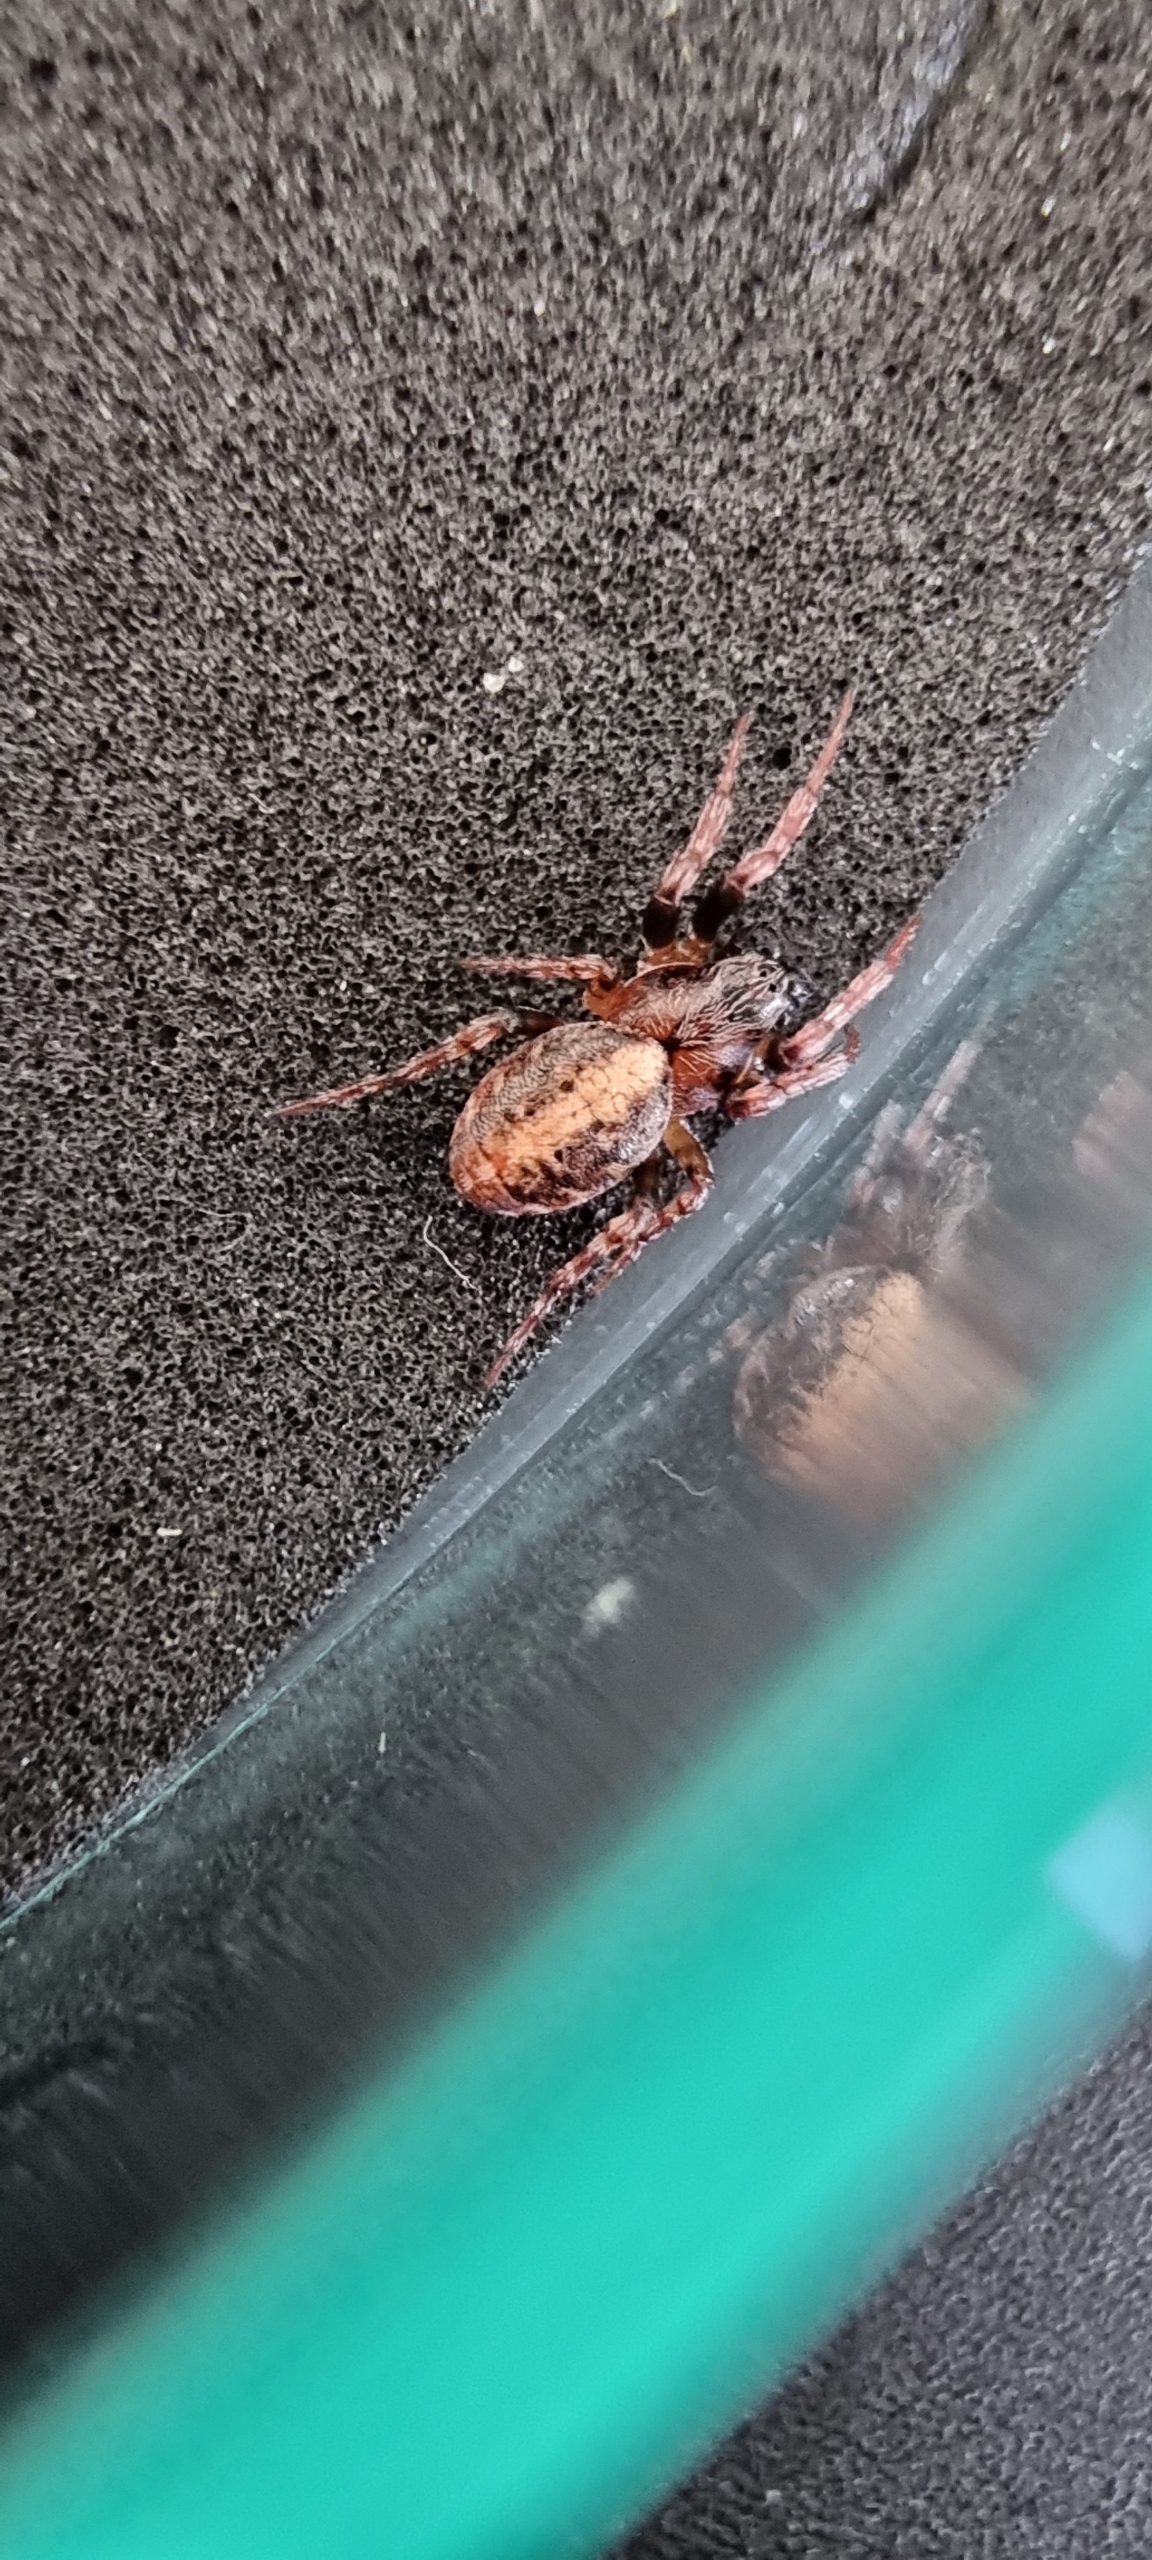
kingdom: Animalia
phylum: Arthropoda
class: Arachnida
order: Araneae
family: Araneidae
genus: Cercidia
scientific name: Cercidia prominens
